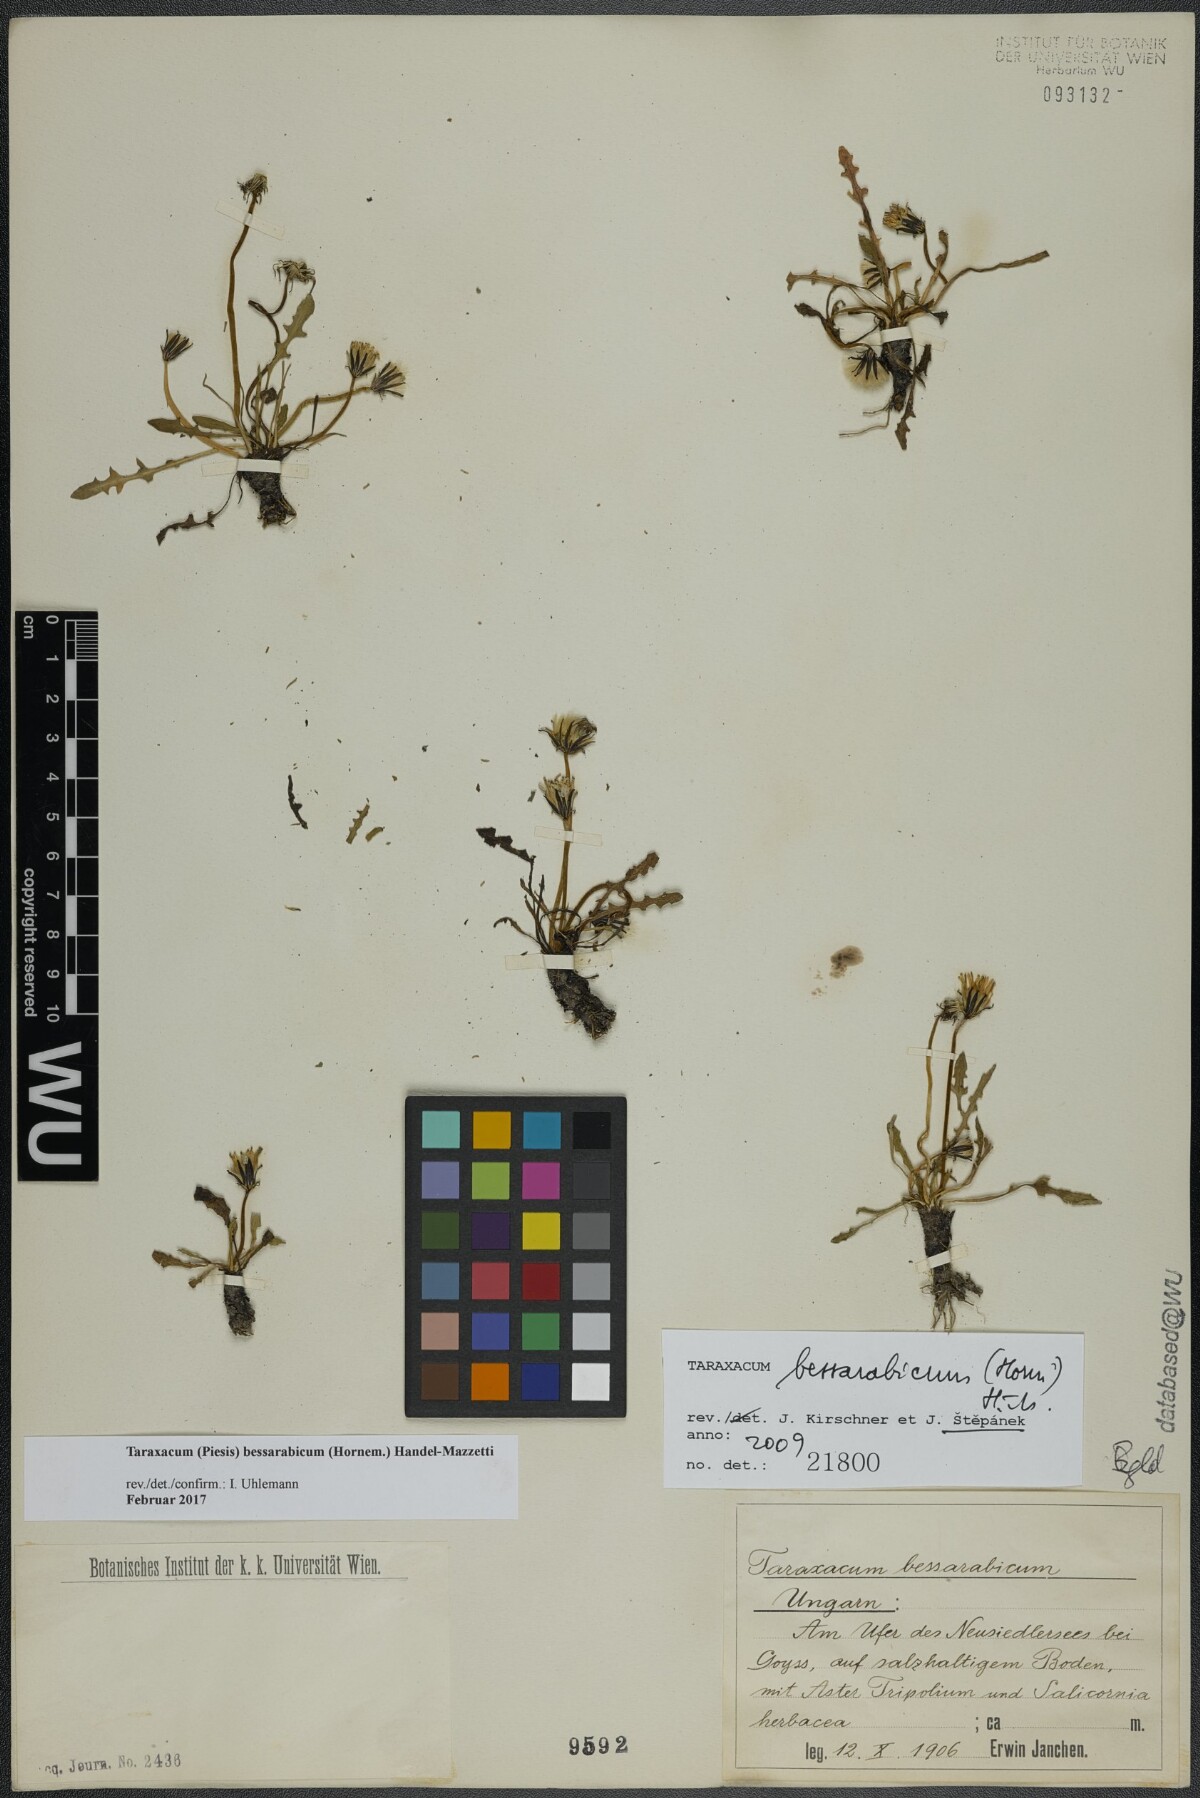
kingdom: Plantae
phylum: Tracheophyta
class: Magnoliopsida
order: Asterales
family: Asteraceae
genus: Taraxacum
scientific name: Taraxacum bessarabicum
